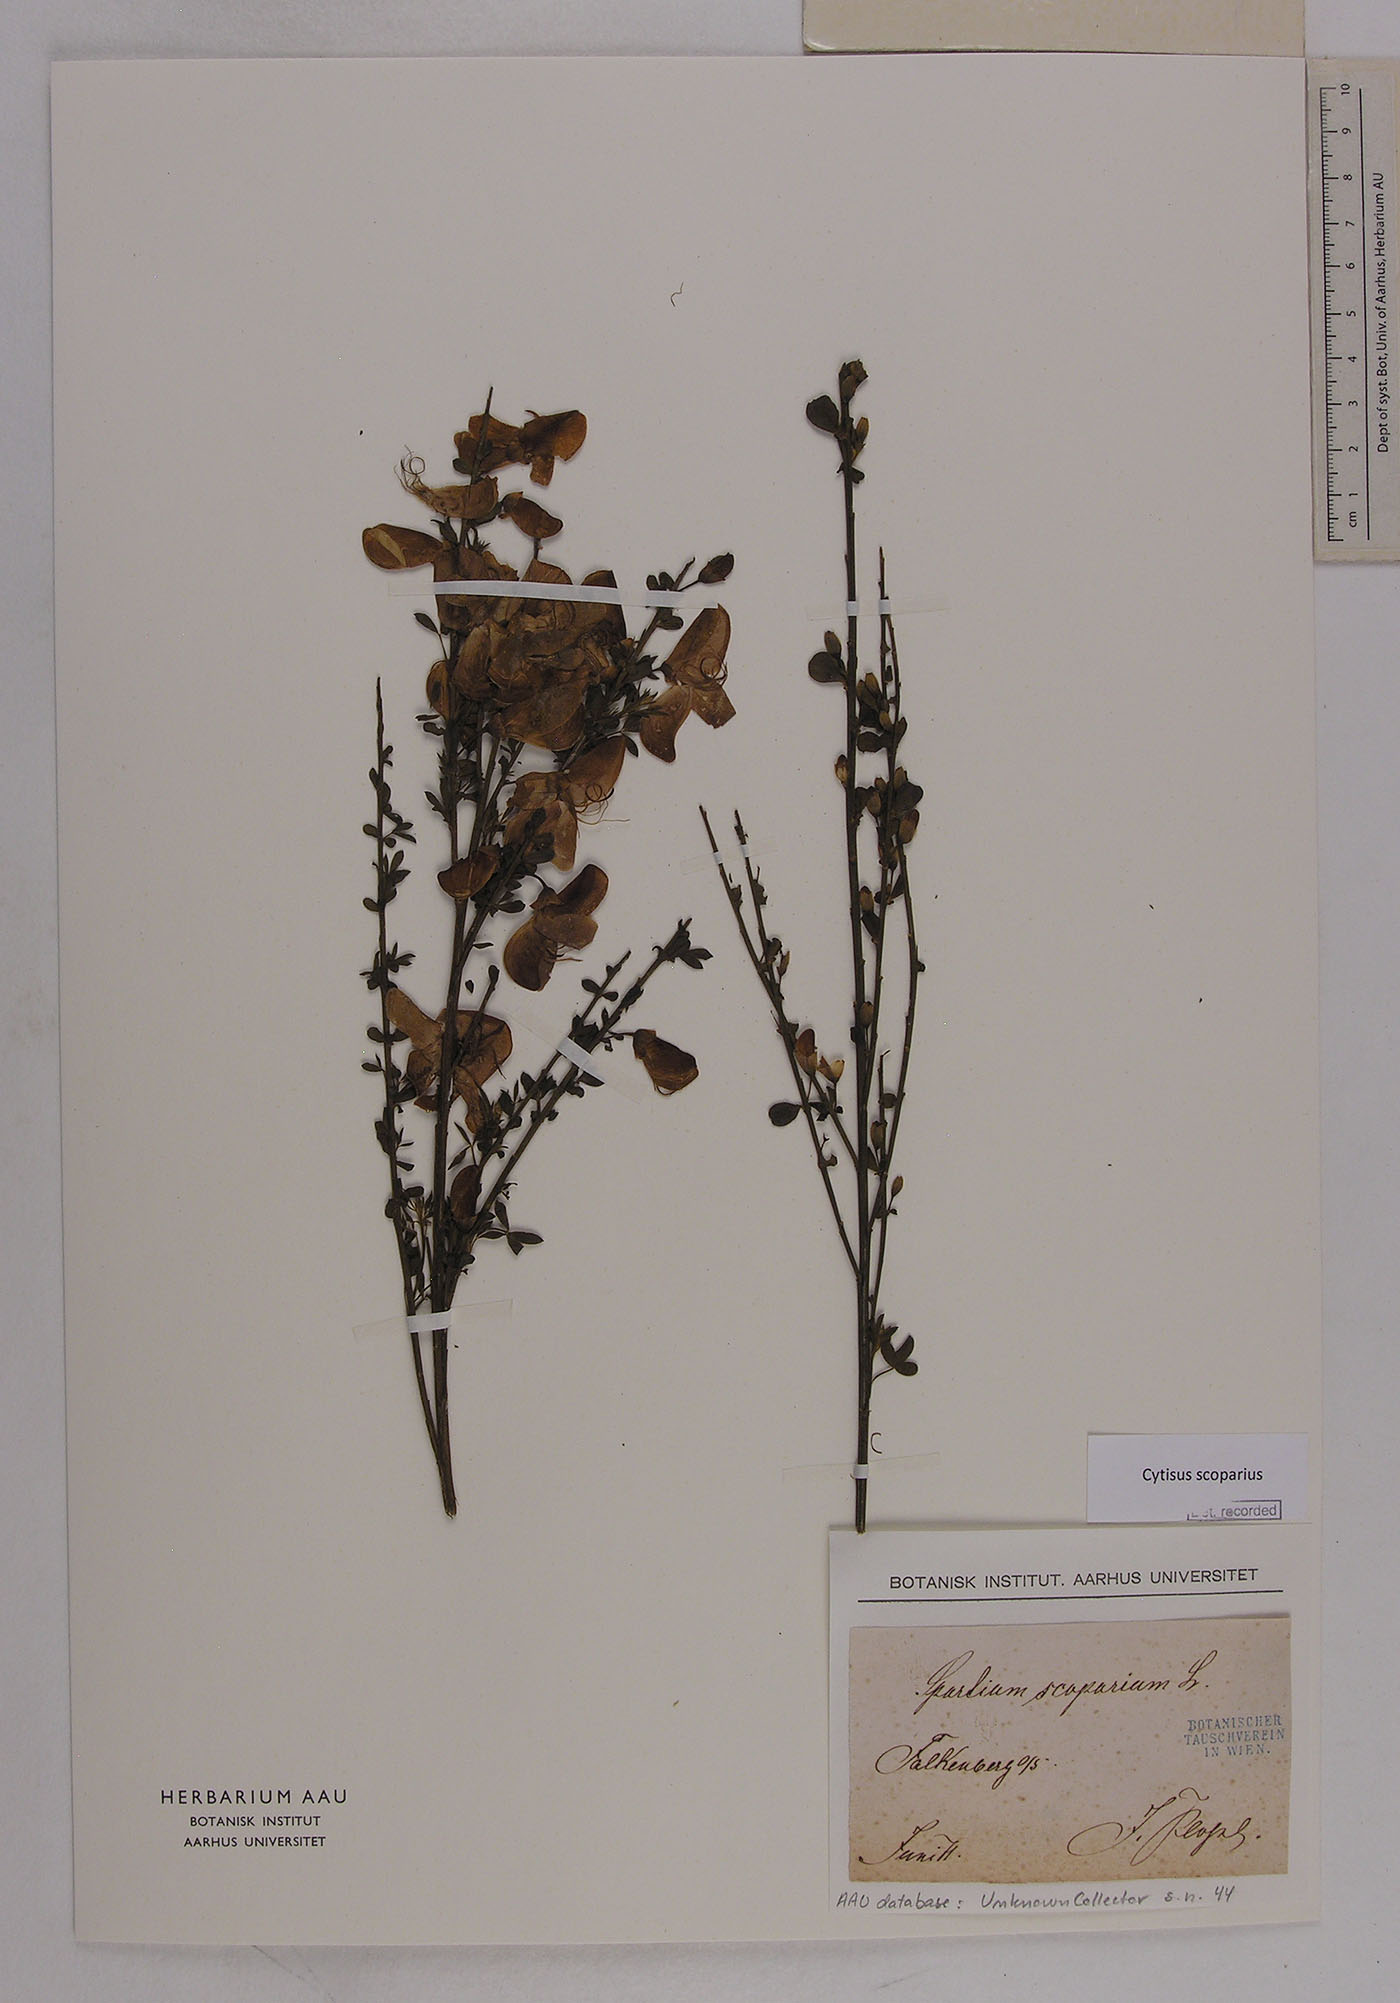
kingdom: Plantae
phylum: Tracheophyta
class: Magnoliopsida
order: Fabales
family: Fabaceae
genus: Cytisus
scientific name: Cytisus scoparius
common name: Scotch broom
